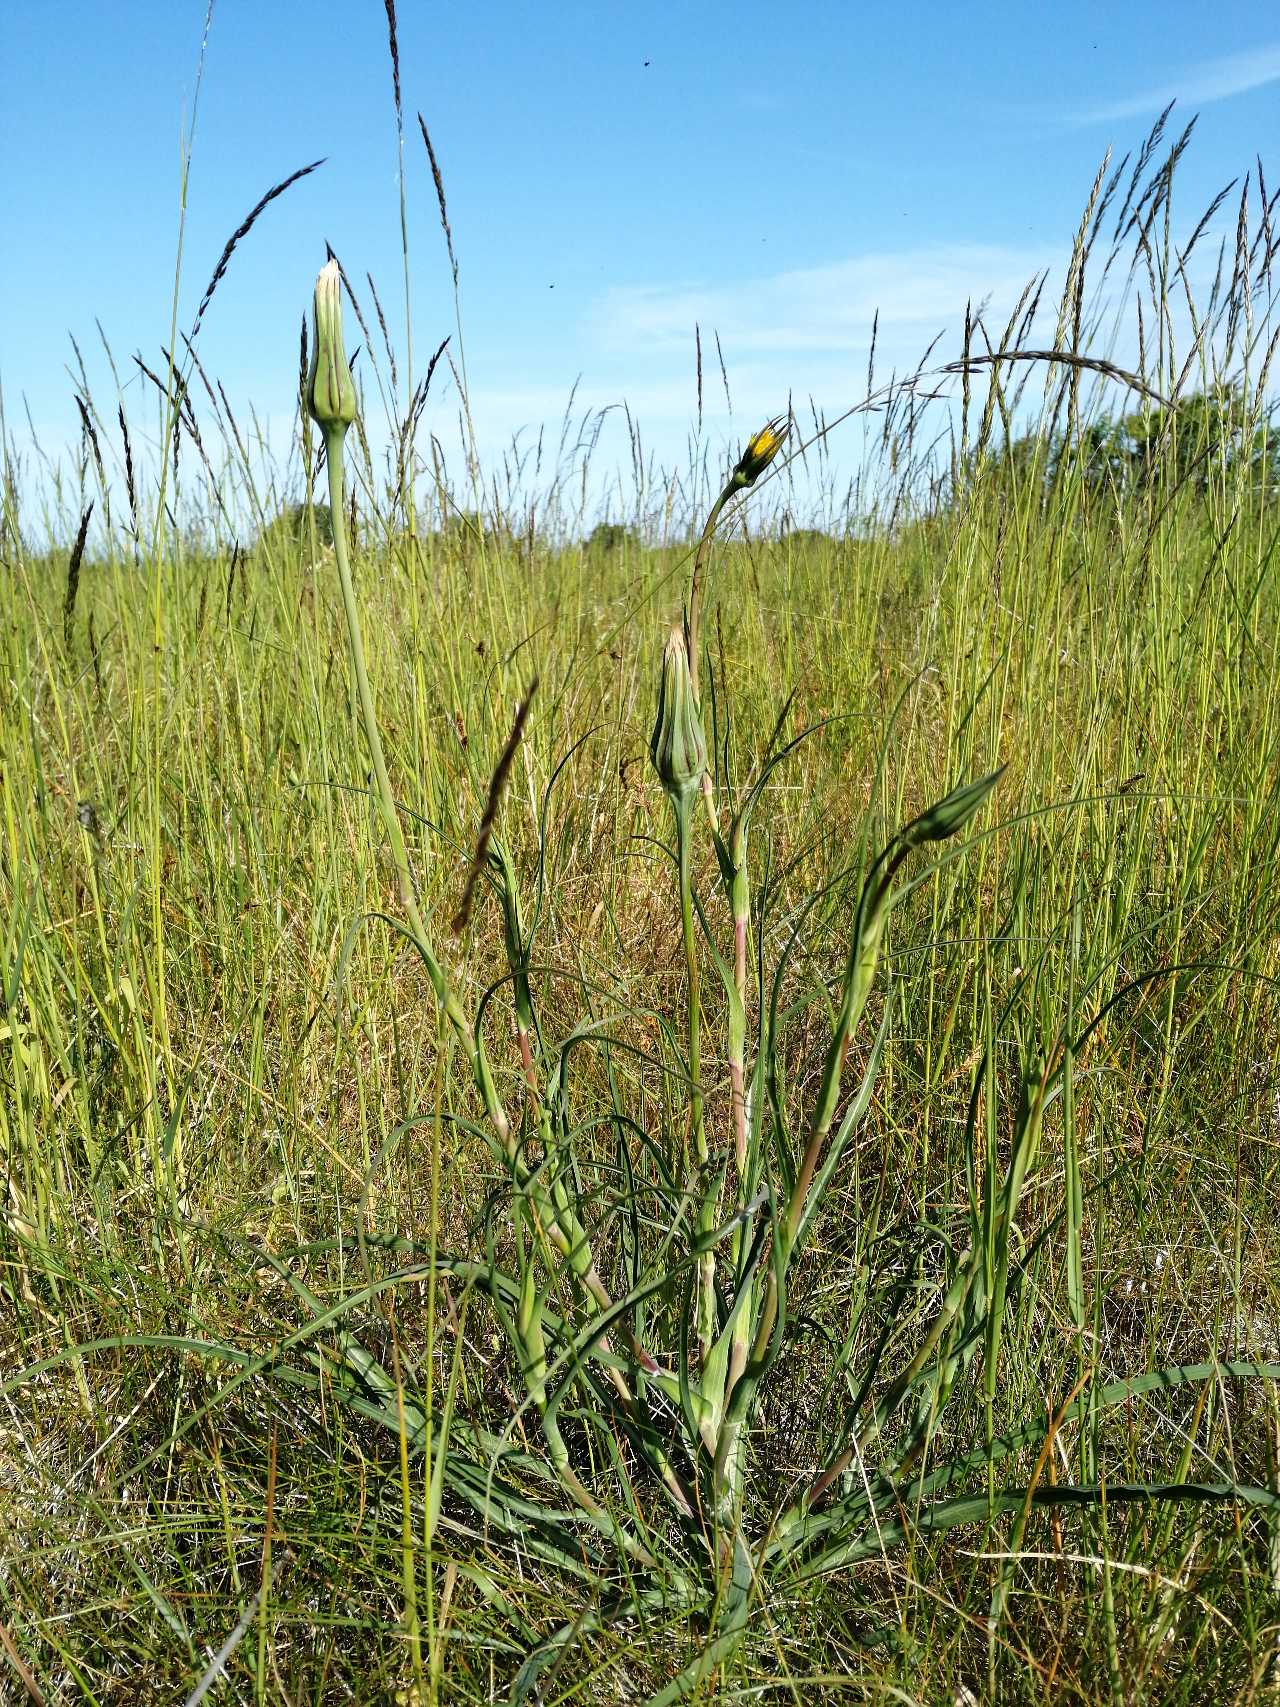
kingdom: Plantae
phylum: Tracheophyta
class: Magnoliopsida
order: Asterales
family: Asteraceae
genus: Tragopogon
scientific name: Tragopogon pratensis
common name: Gedeskæg
